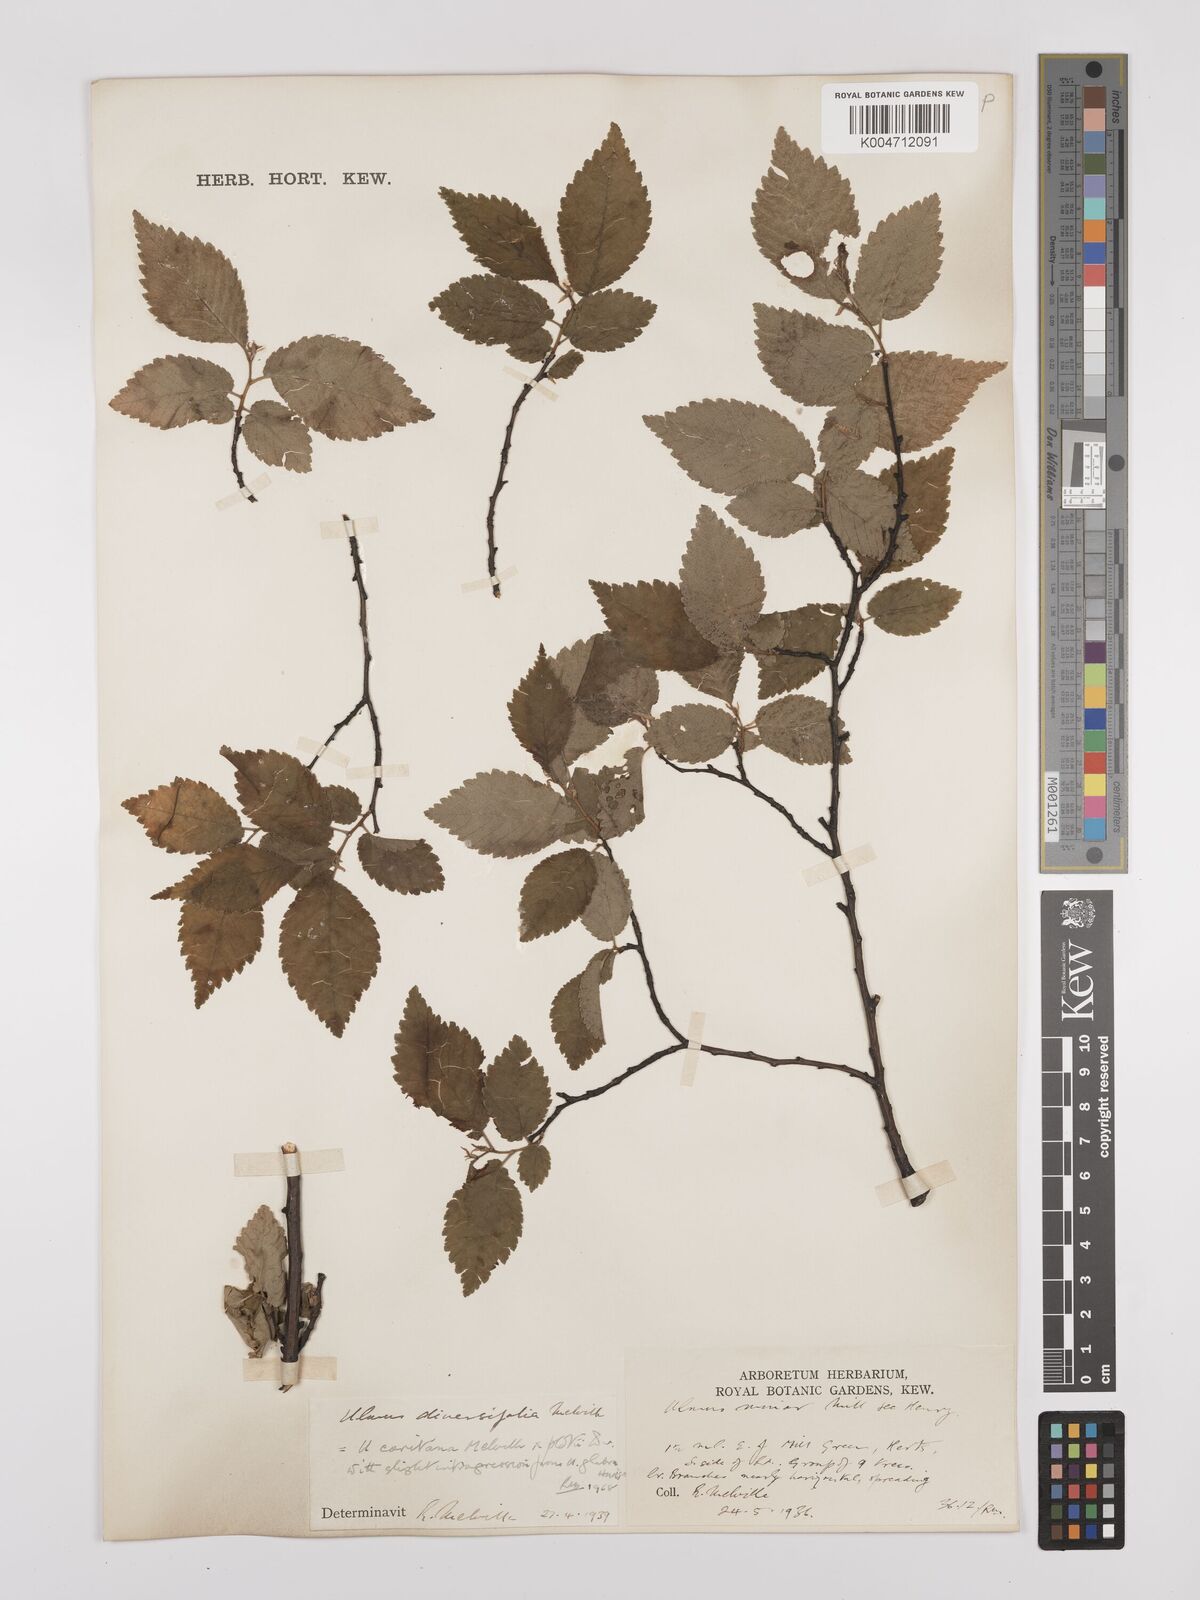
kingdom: Plantae
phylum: Tracheophyta
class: Magnoliopsida
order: Rosales
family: Ulmaceae
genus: Ulmus
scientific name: Ulmus minor
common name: Small-leaved elm
